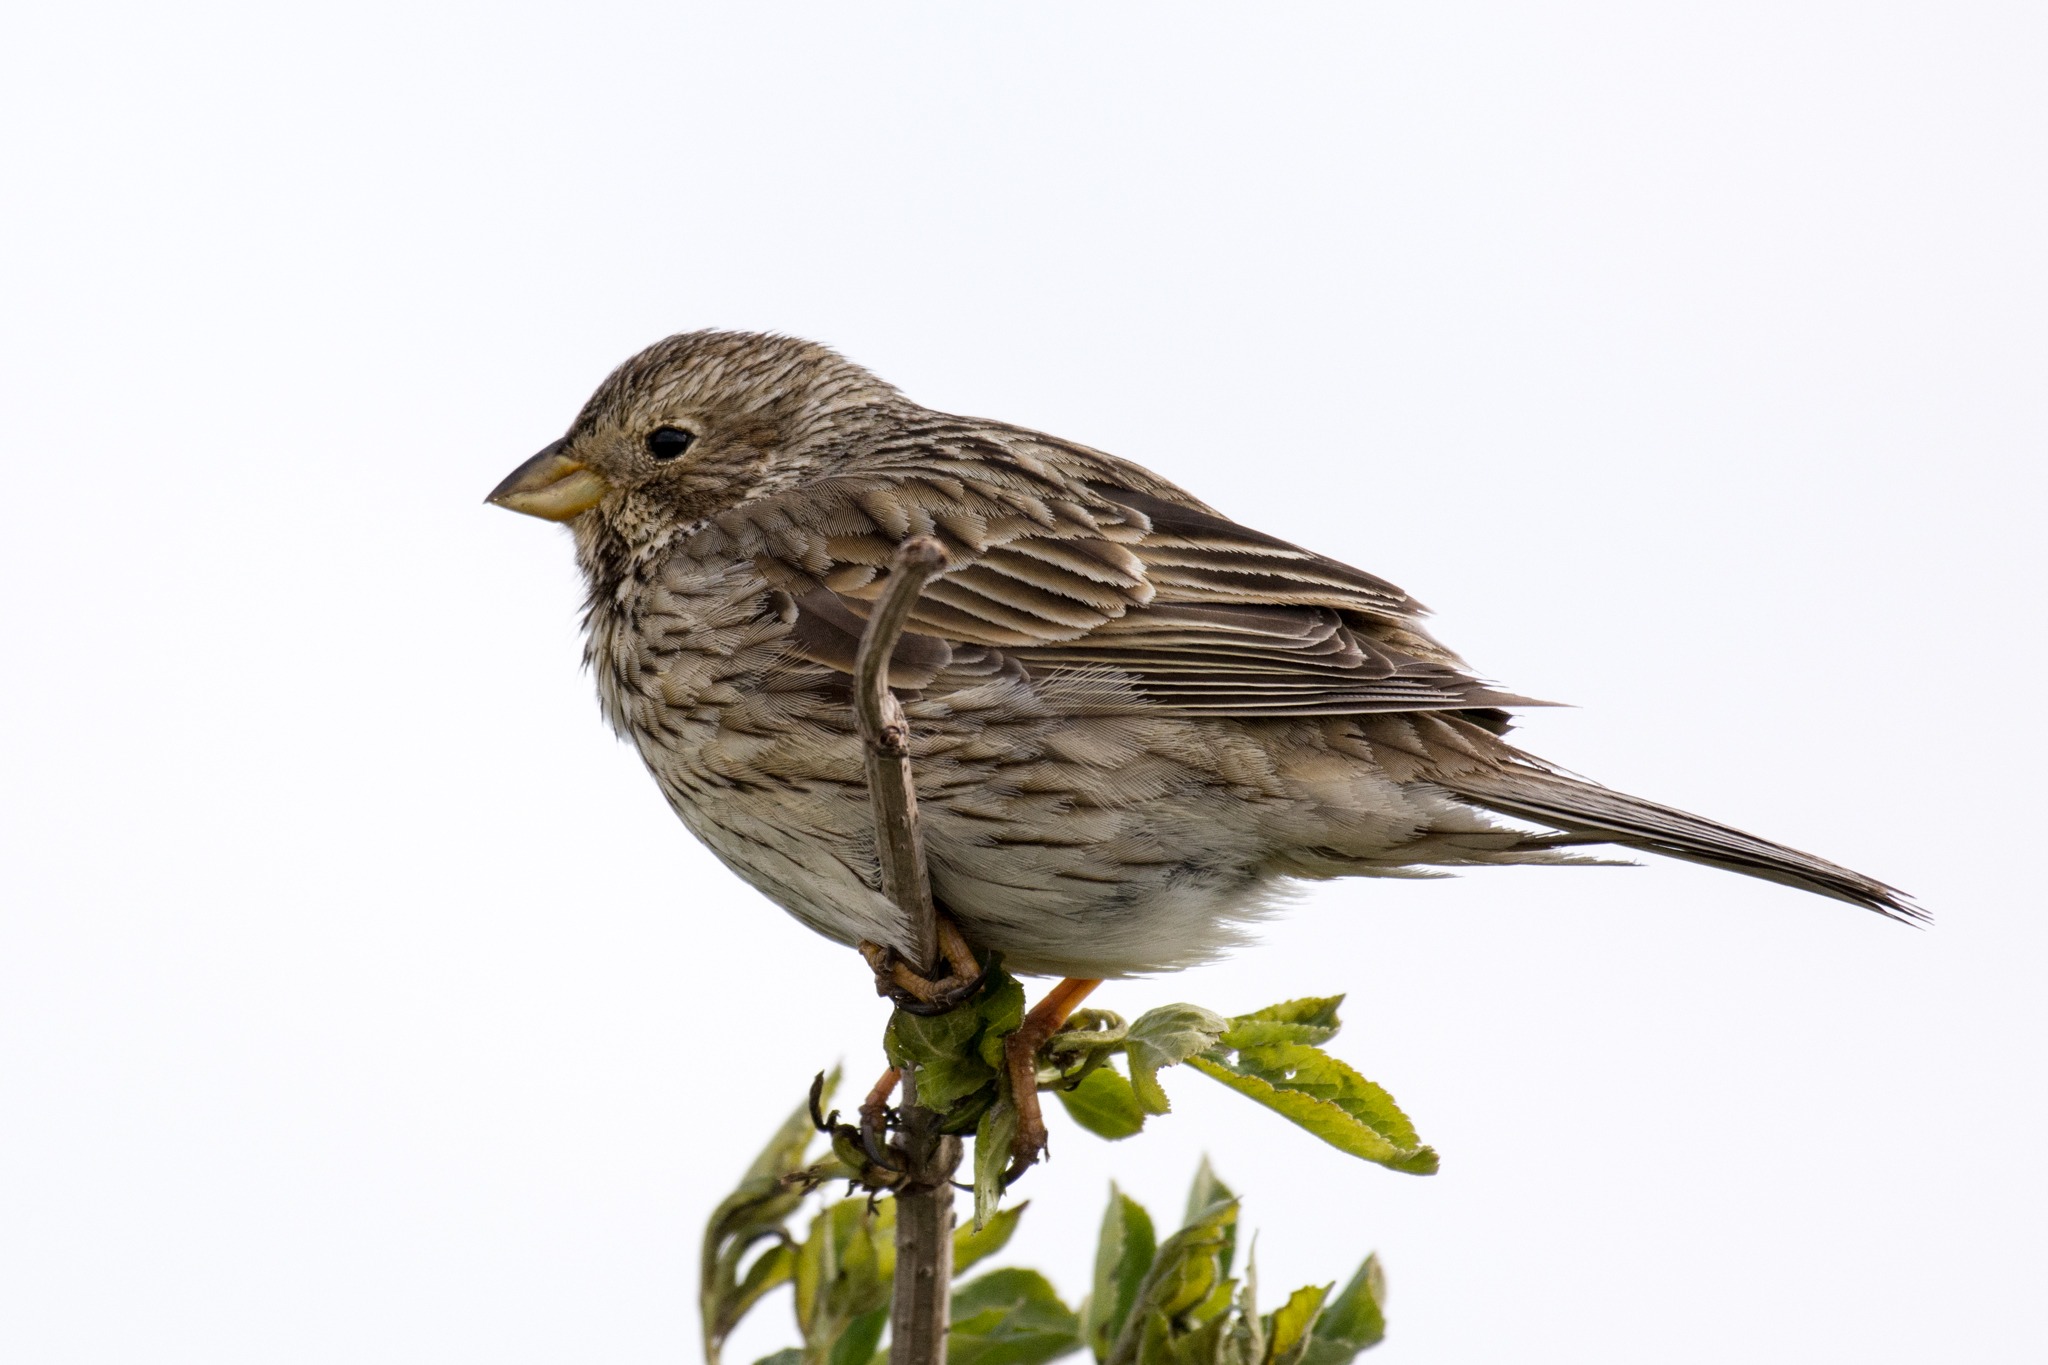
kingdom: Animalia
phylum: Chordata
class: Aves
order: Passeriformes
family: Emberizidae
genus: Emberiza
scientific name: Emberiza calandra
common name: Bomlærke
